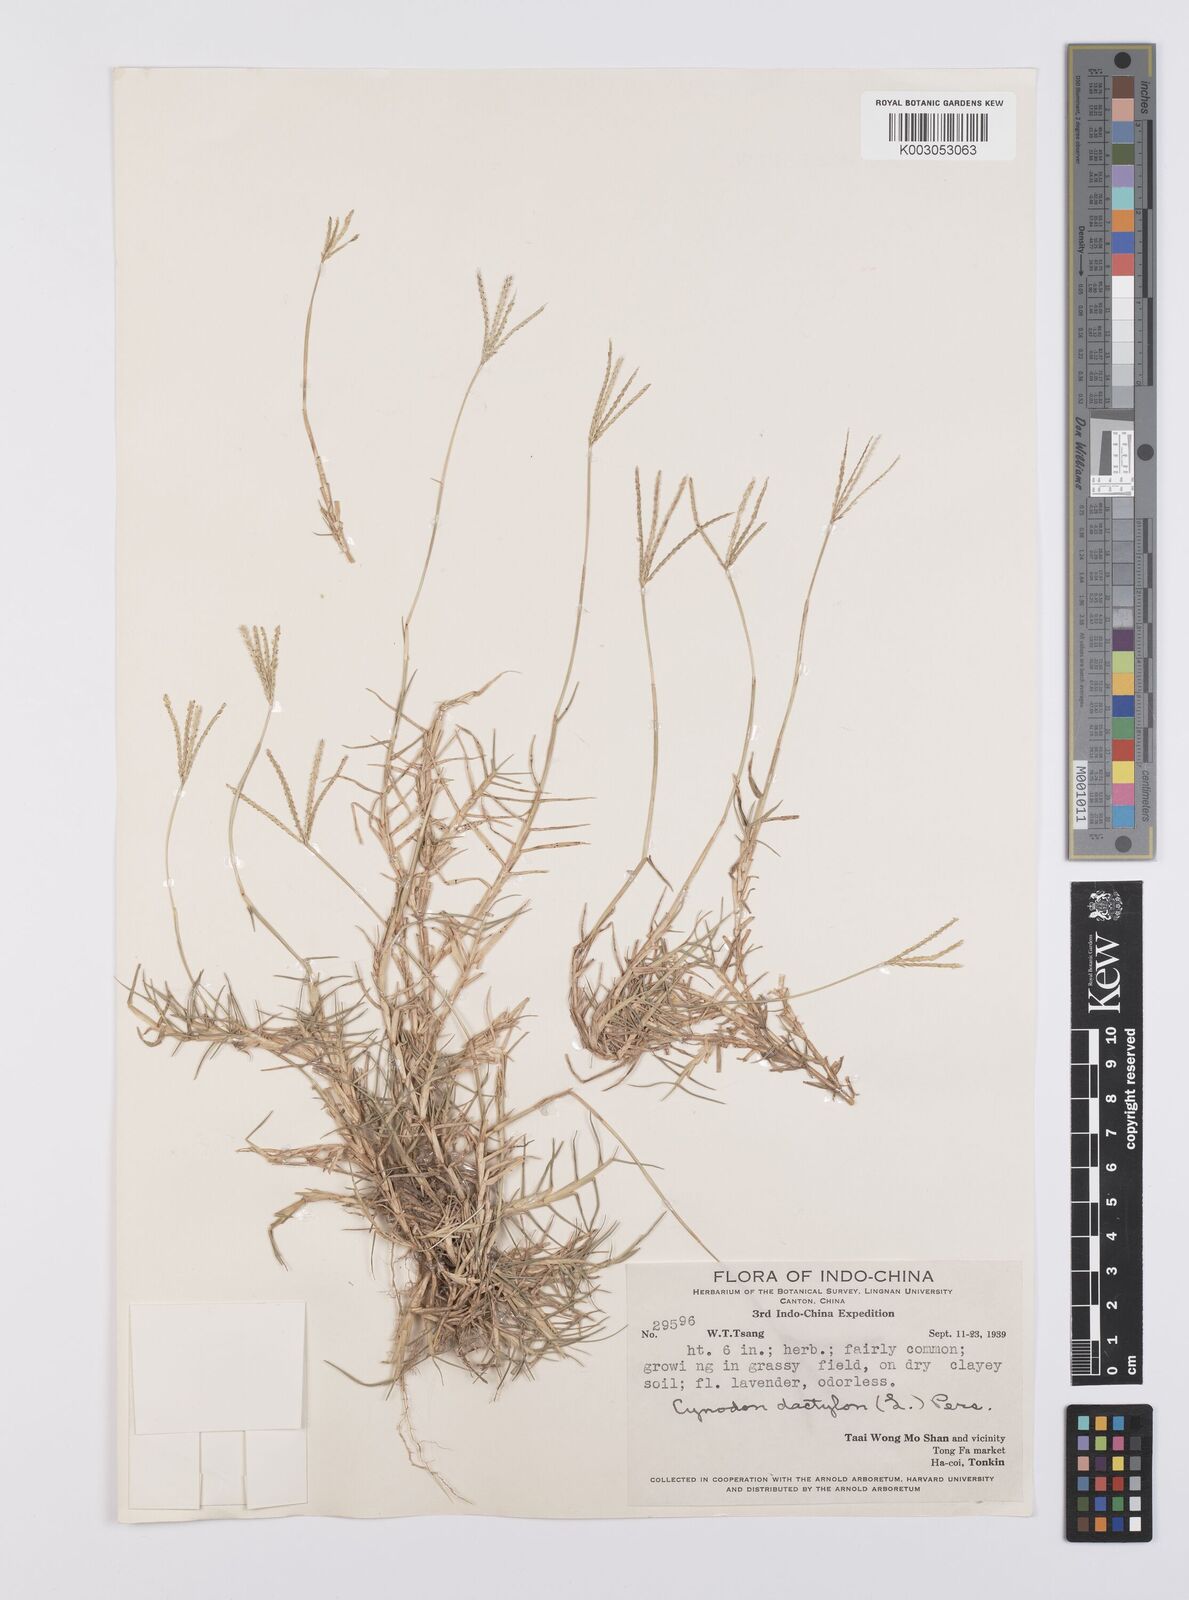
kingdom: Plantae
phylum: Tracheophyta
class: Liliopsida
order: Poales
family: Poaceae
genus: Cynodon
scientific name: Cynodon dactylon
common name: Bermuda grass
